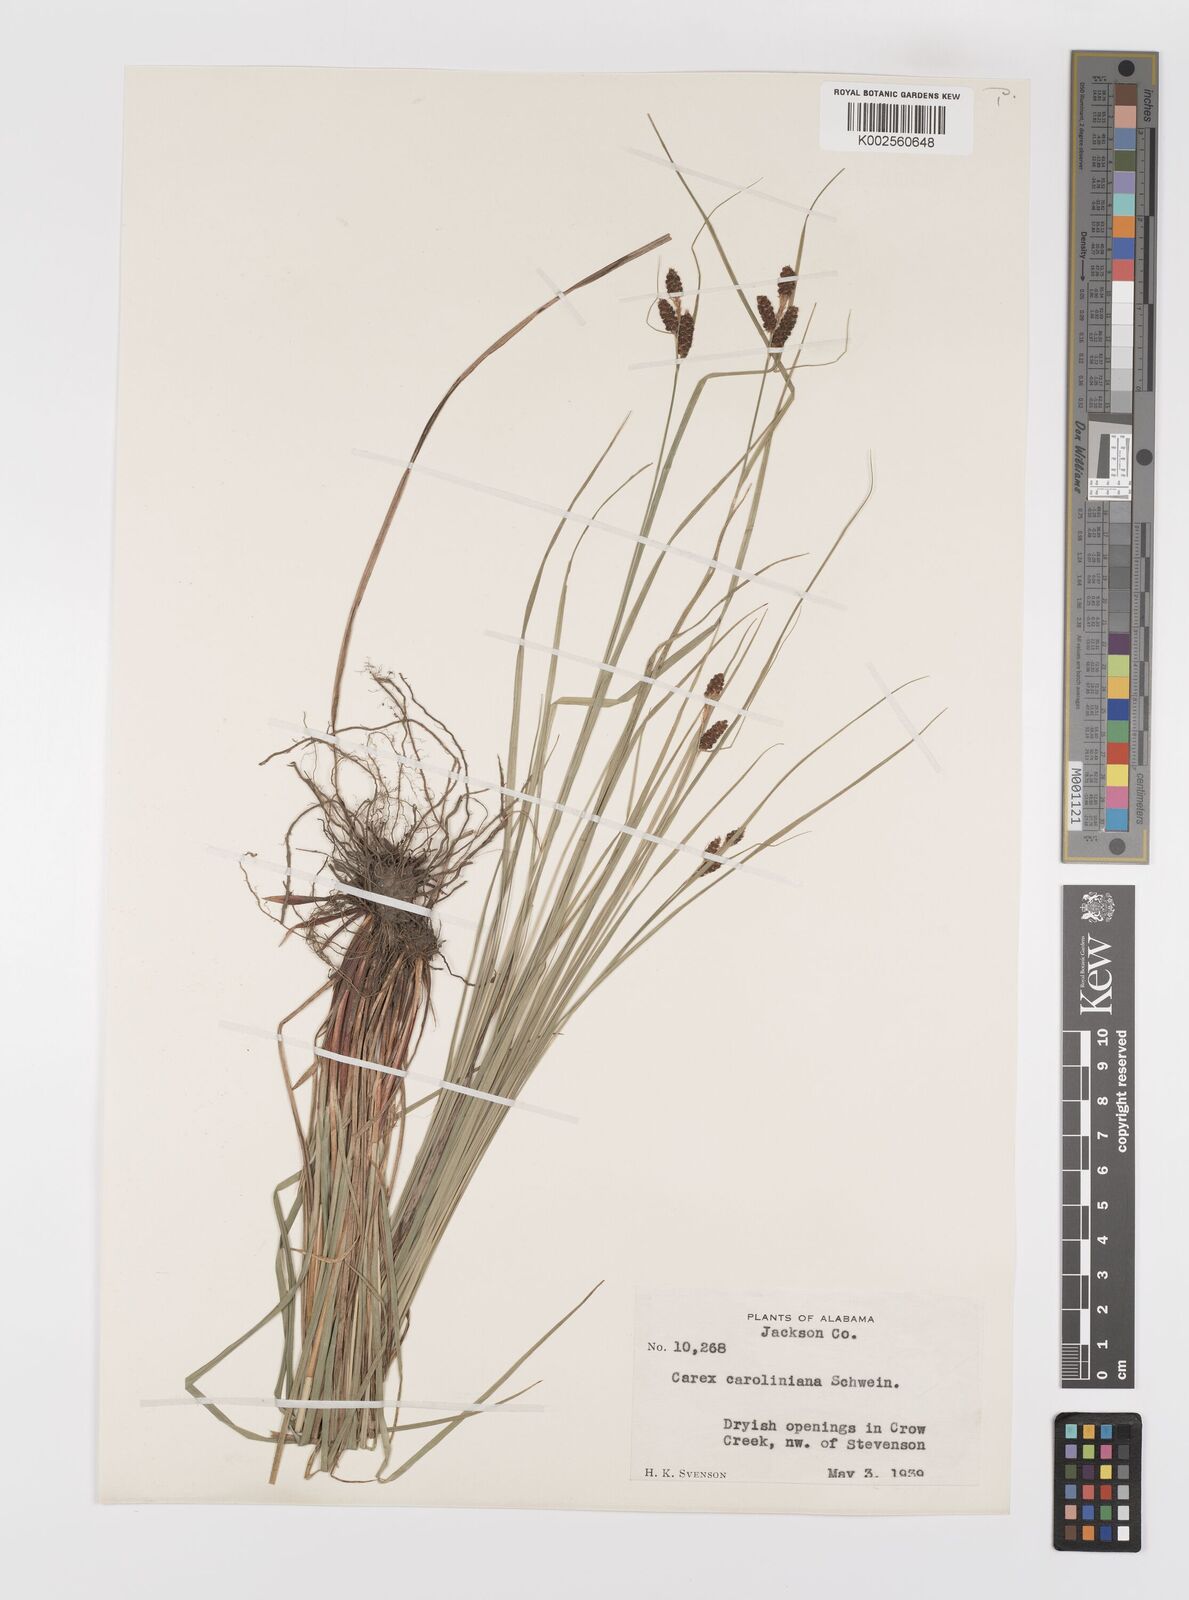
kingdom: Plantae
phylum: Tracheophyta
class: Liliopsida
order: Poales
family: Cyperaceae
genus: Carex
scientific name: Carex caroliniana
